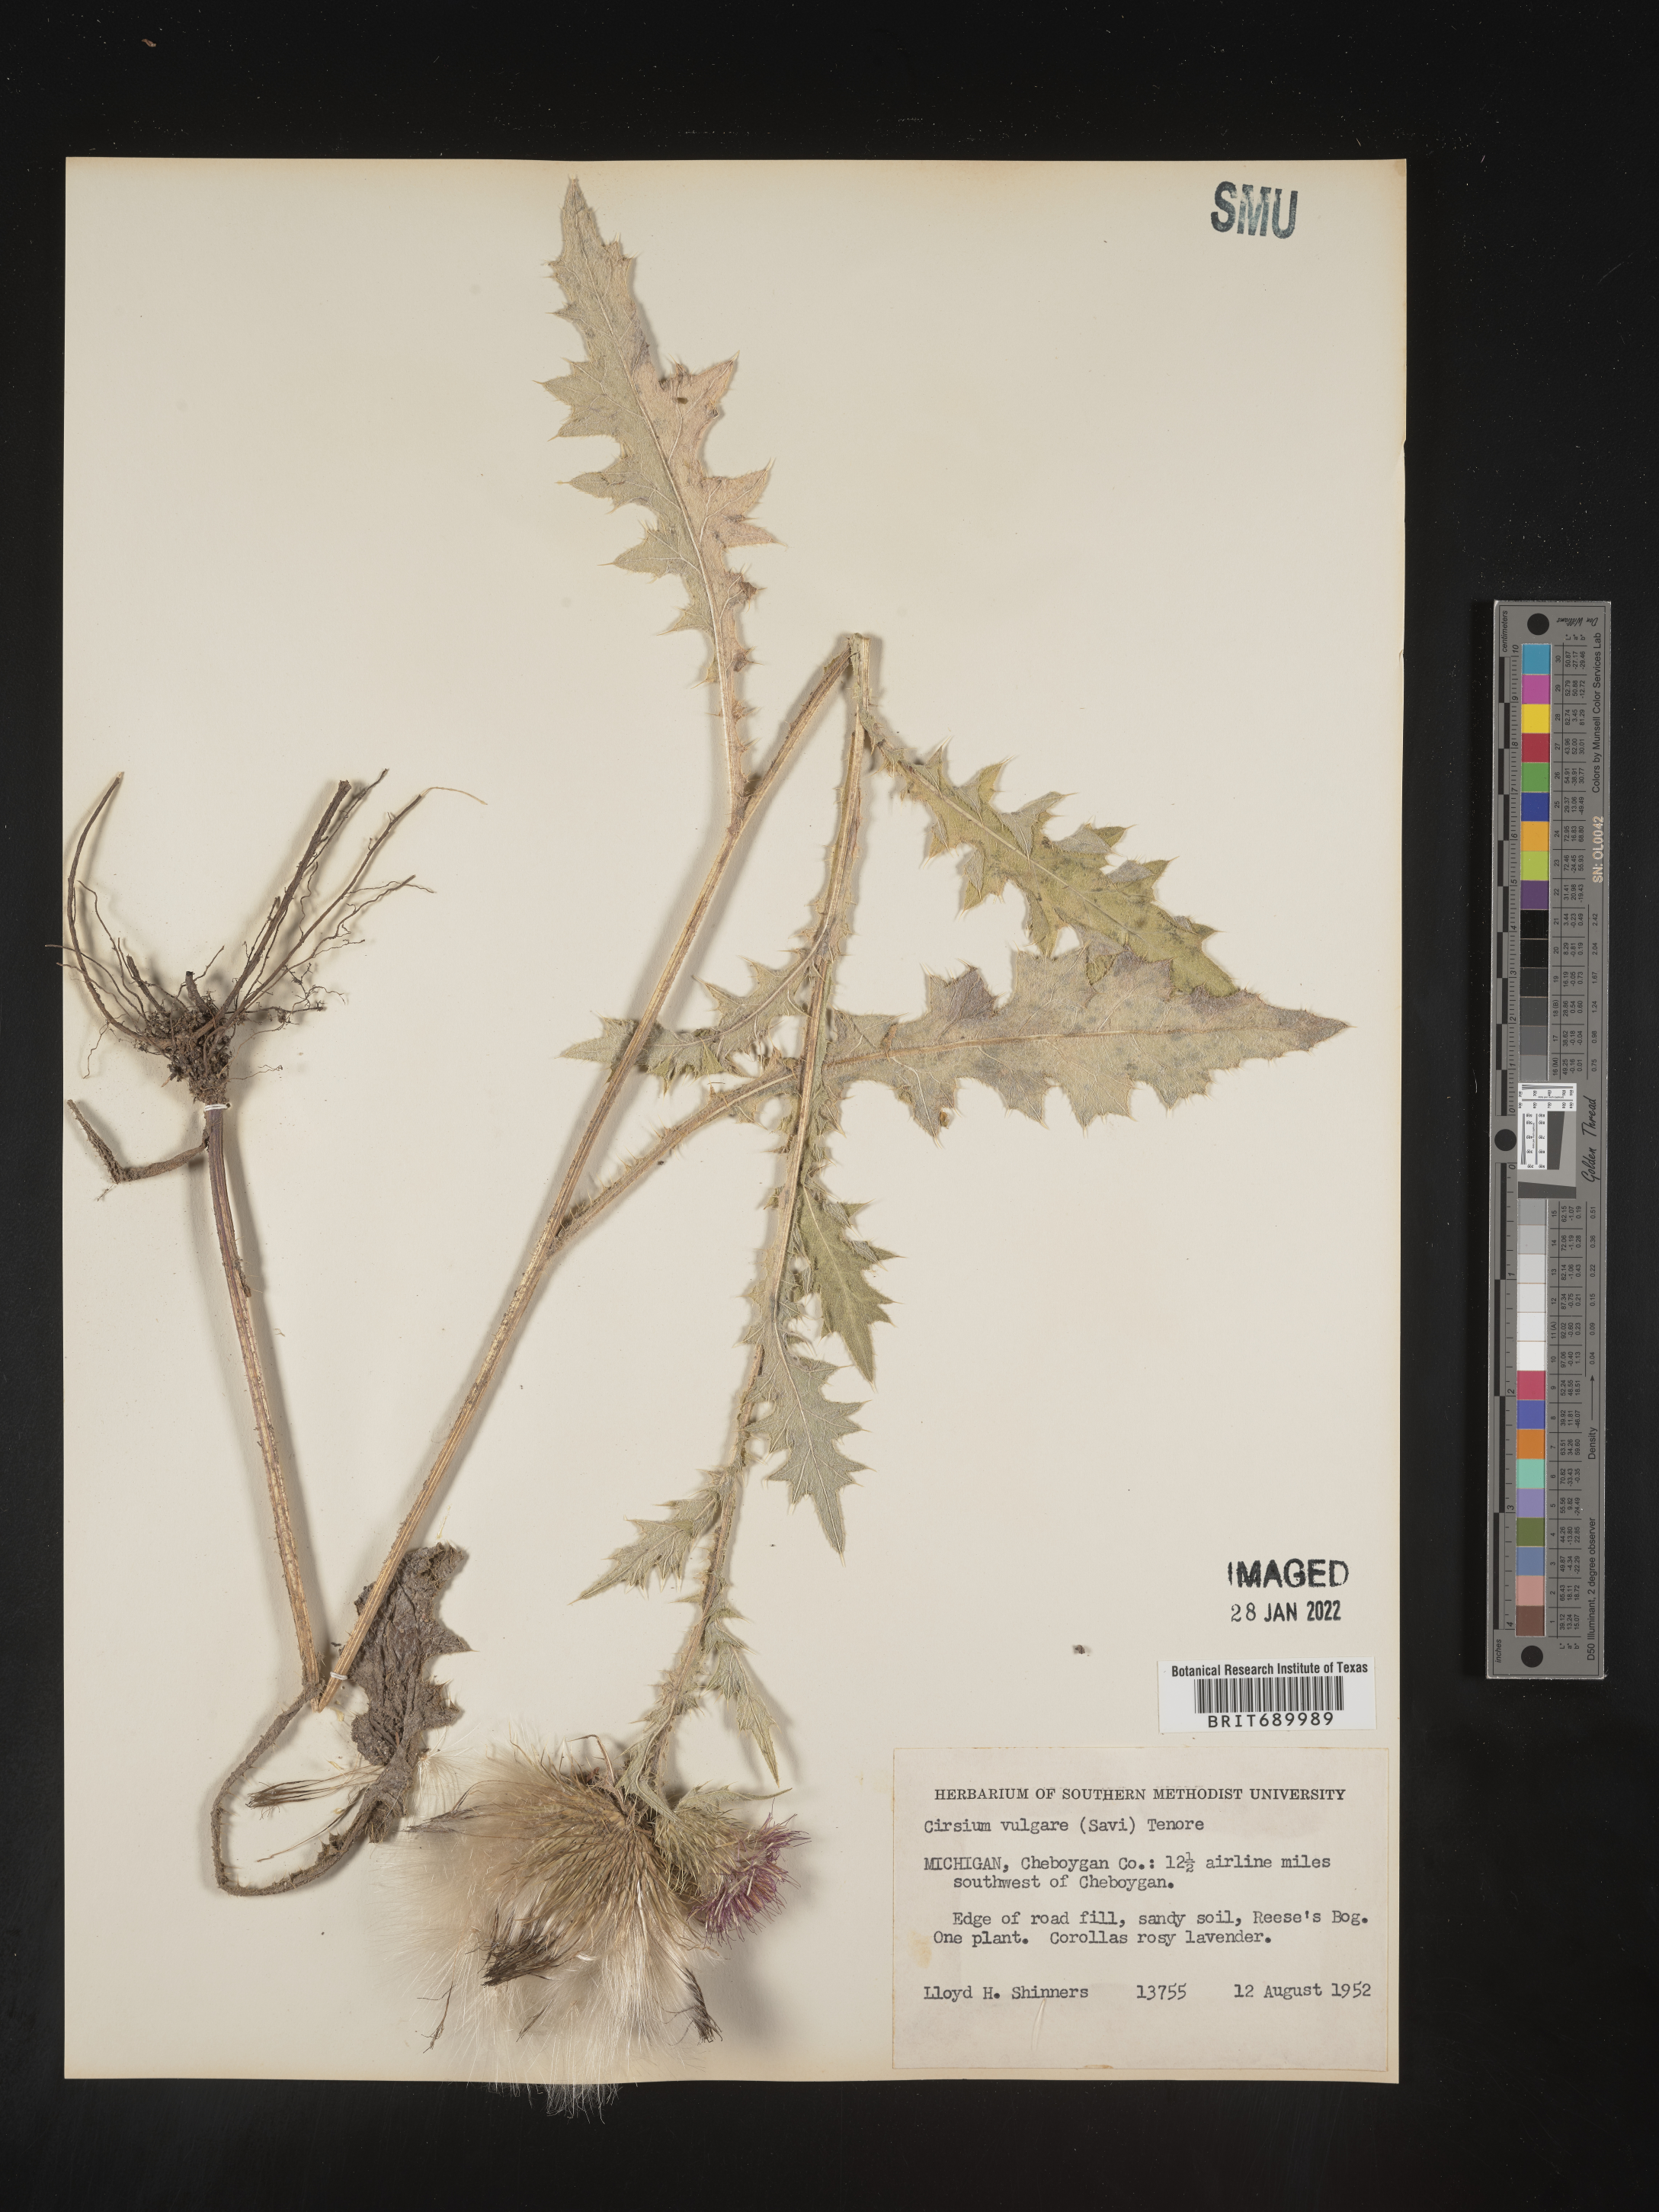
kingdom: Plantae
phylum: Tracheophyta
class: Magnoliopsida
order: Asterales
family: Asteraceae
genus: Cirsium
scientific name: Cirsium vulgare
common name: Bull thistle
